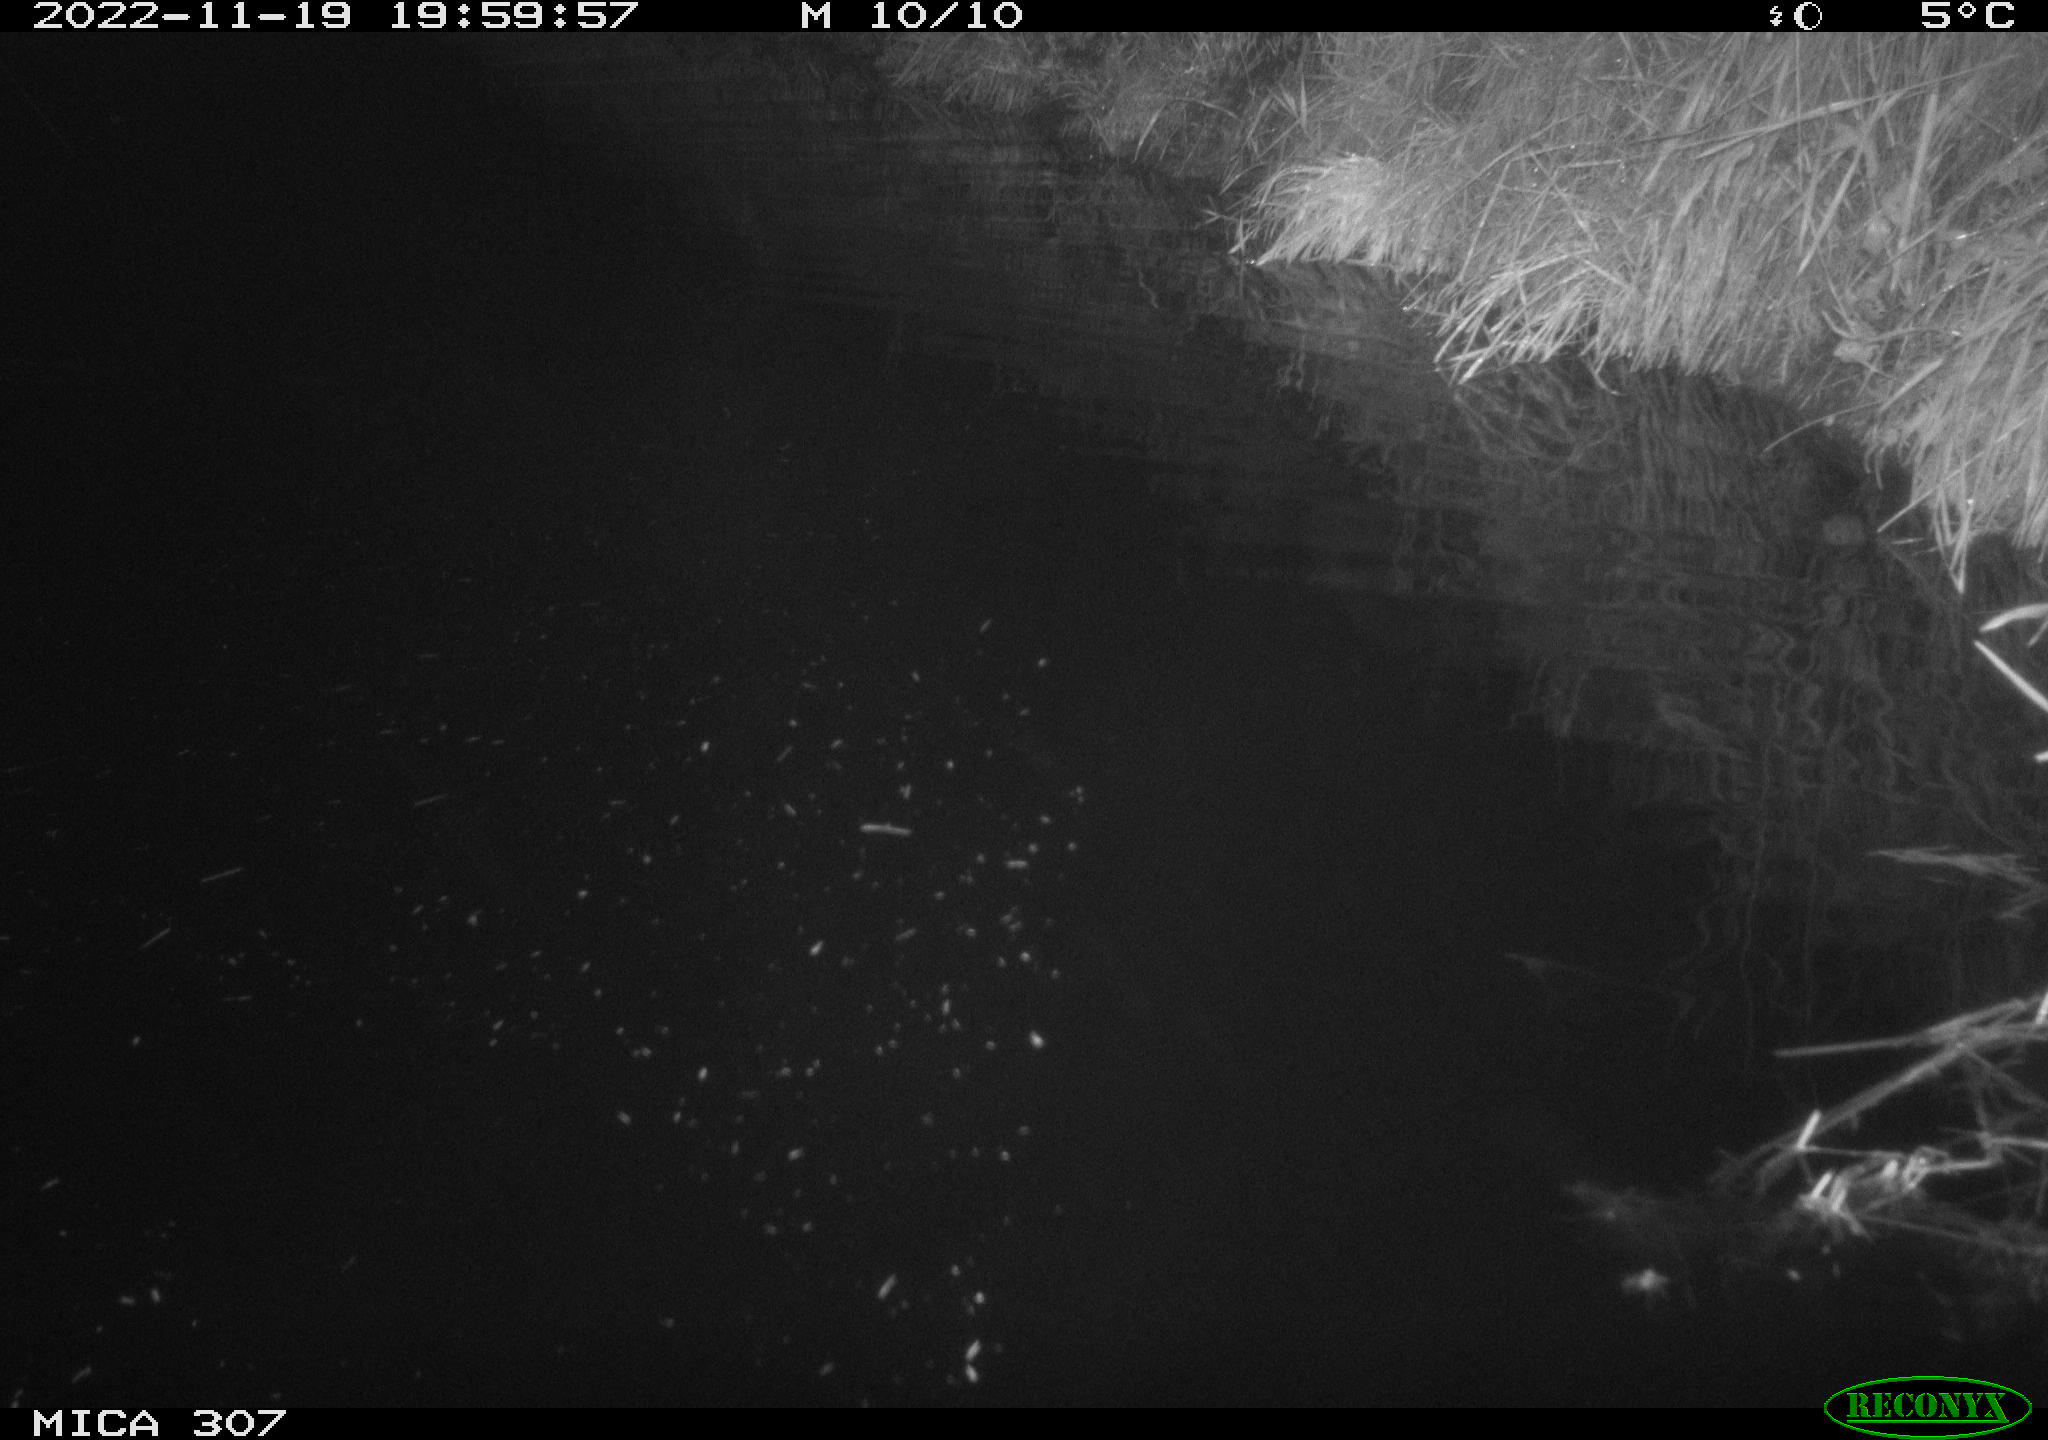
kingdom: Animalia
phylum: Chordata
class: Mammalia
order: Rodentia
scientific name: Rodentia
